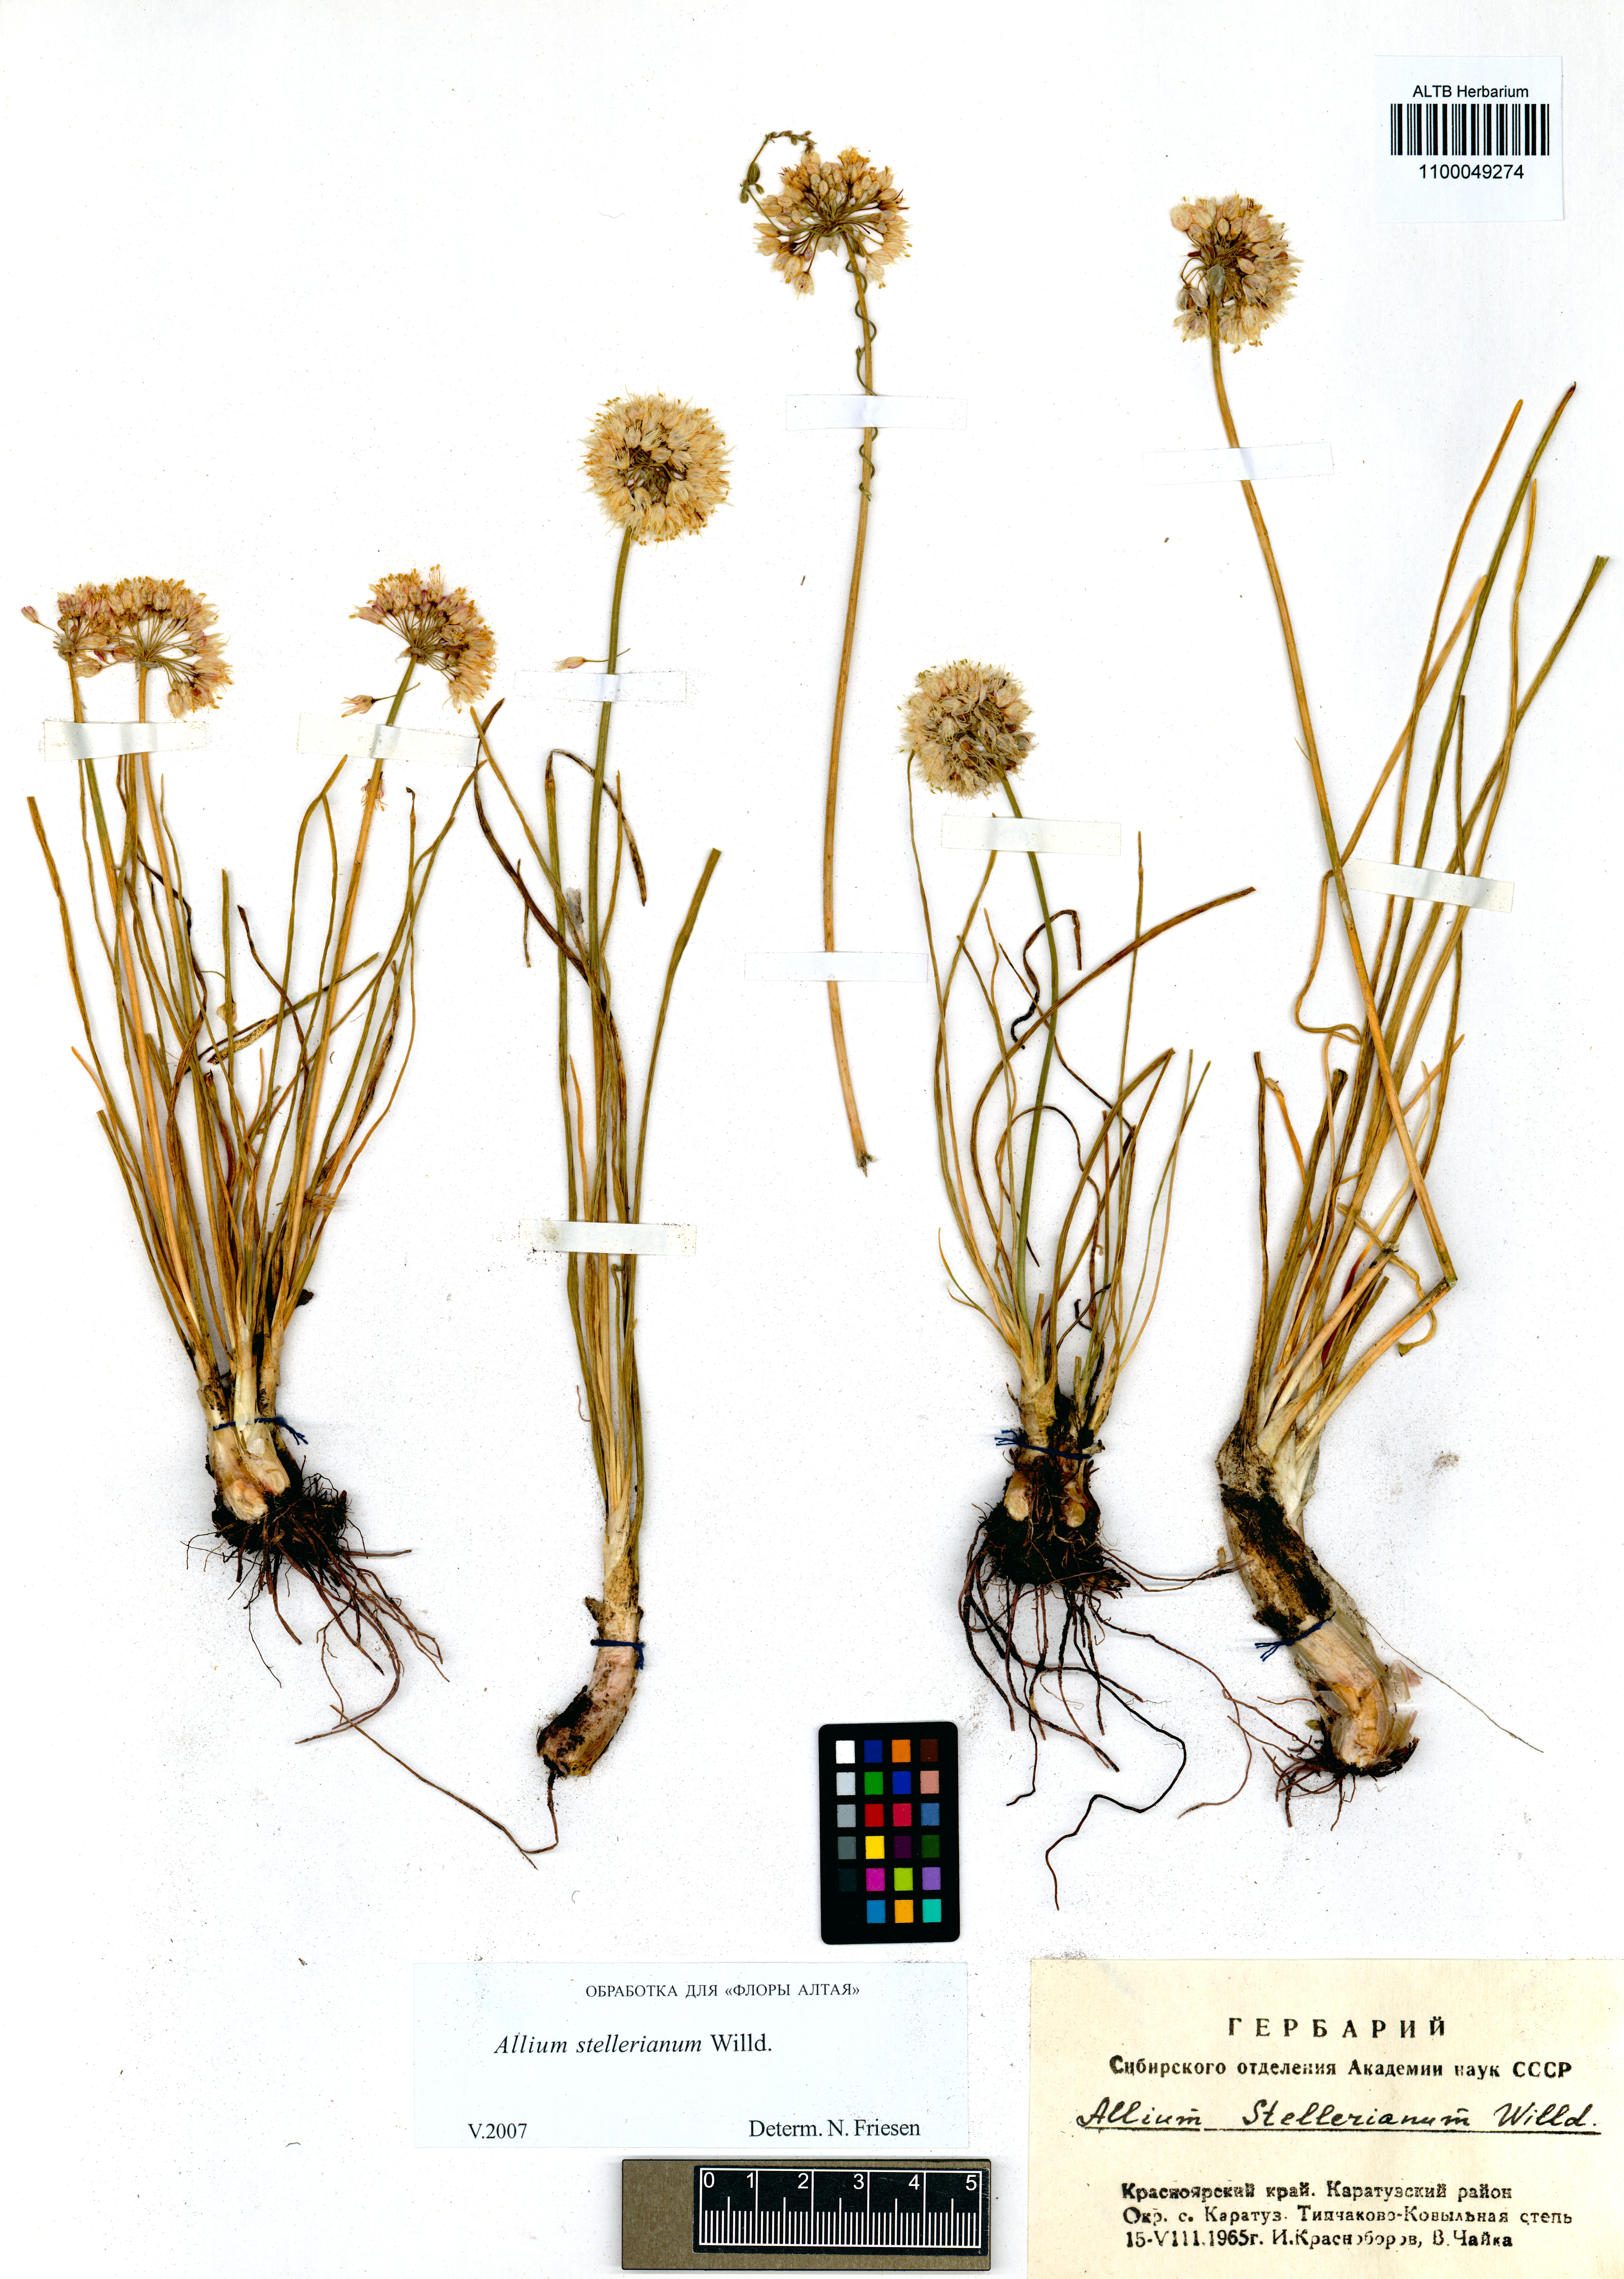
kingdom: Plantae
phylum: Tracheophyta
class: Liliopsida
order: Asparagales
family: Amaryllidaceae
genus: Allium
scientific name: Allium stellerianum
